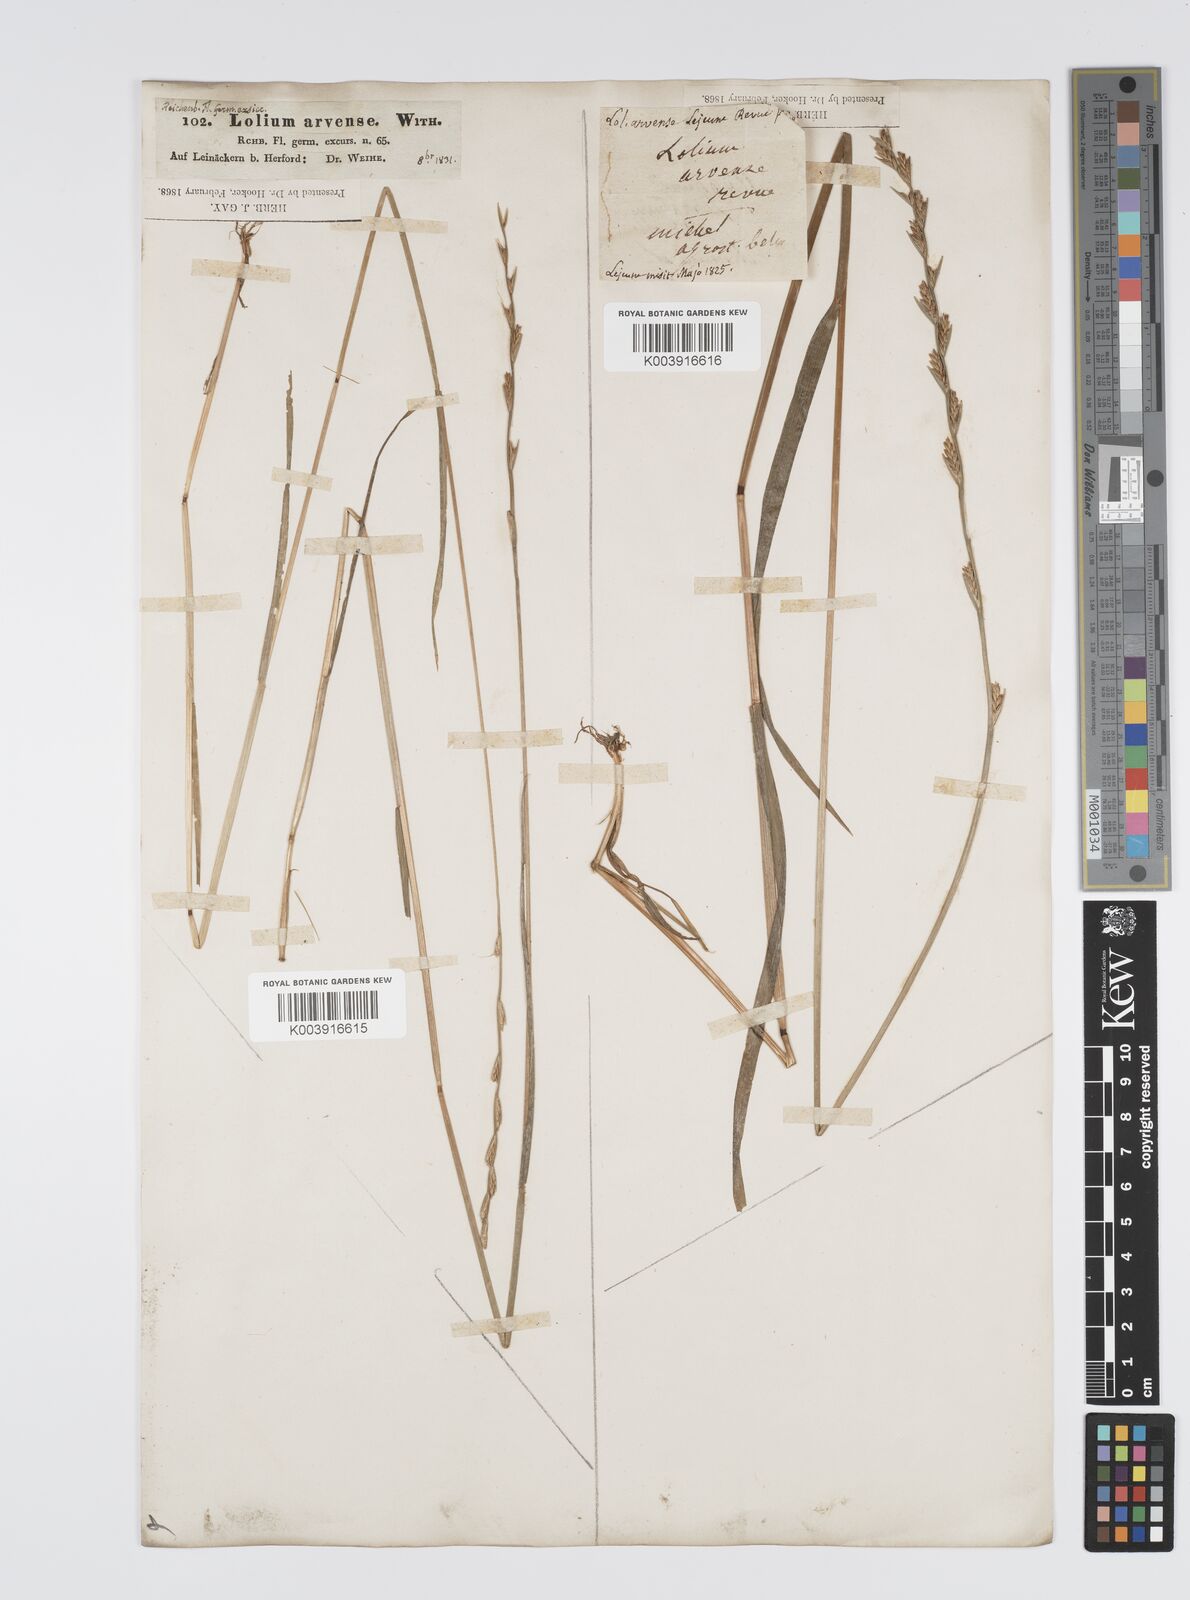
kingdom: Plantae
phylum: Tracheophyta
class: Liliopsida
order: Poales
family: Poaceae
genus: Lolium
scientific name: Lolium remotum
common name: Flaxfield rye-grass
